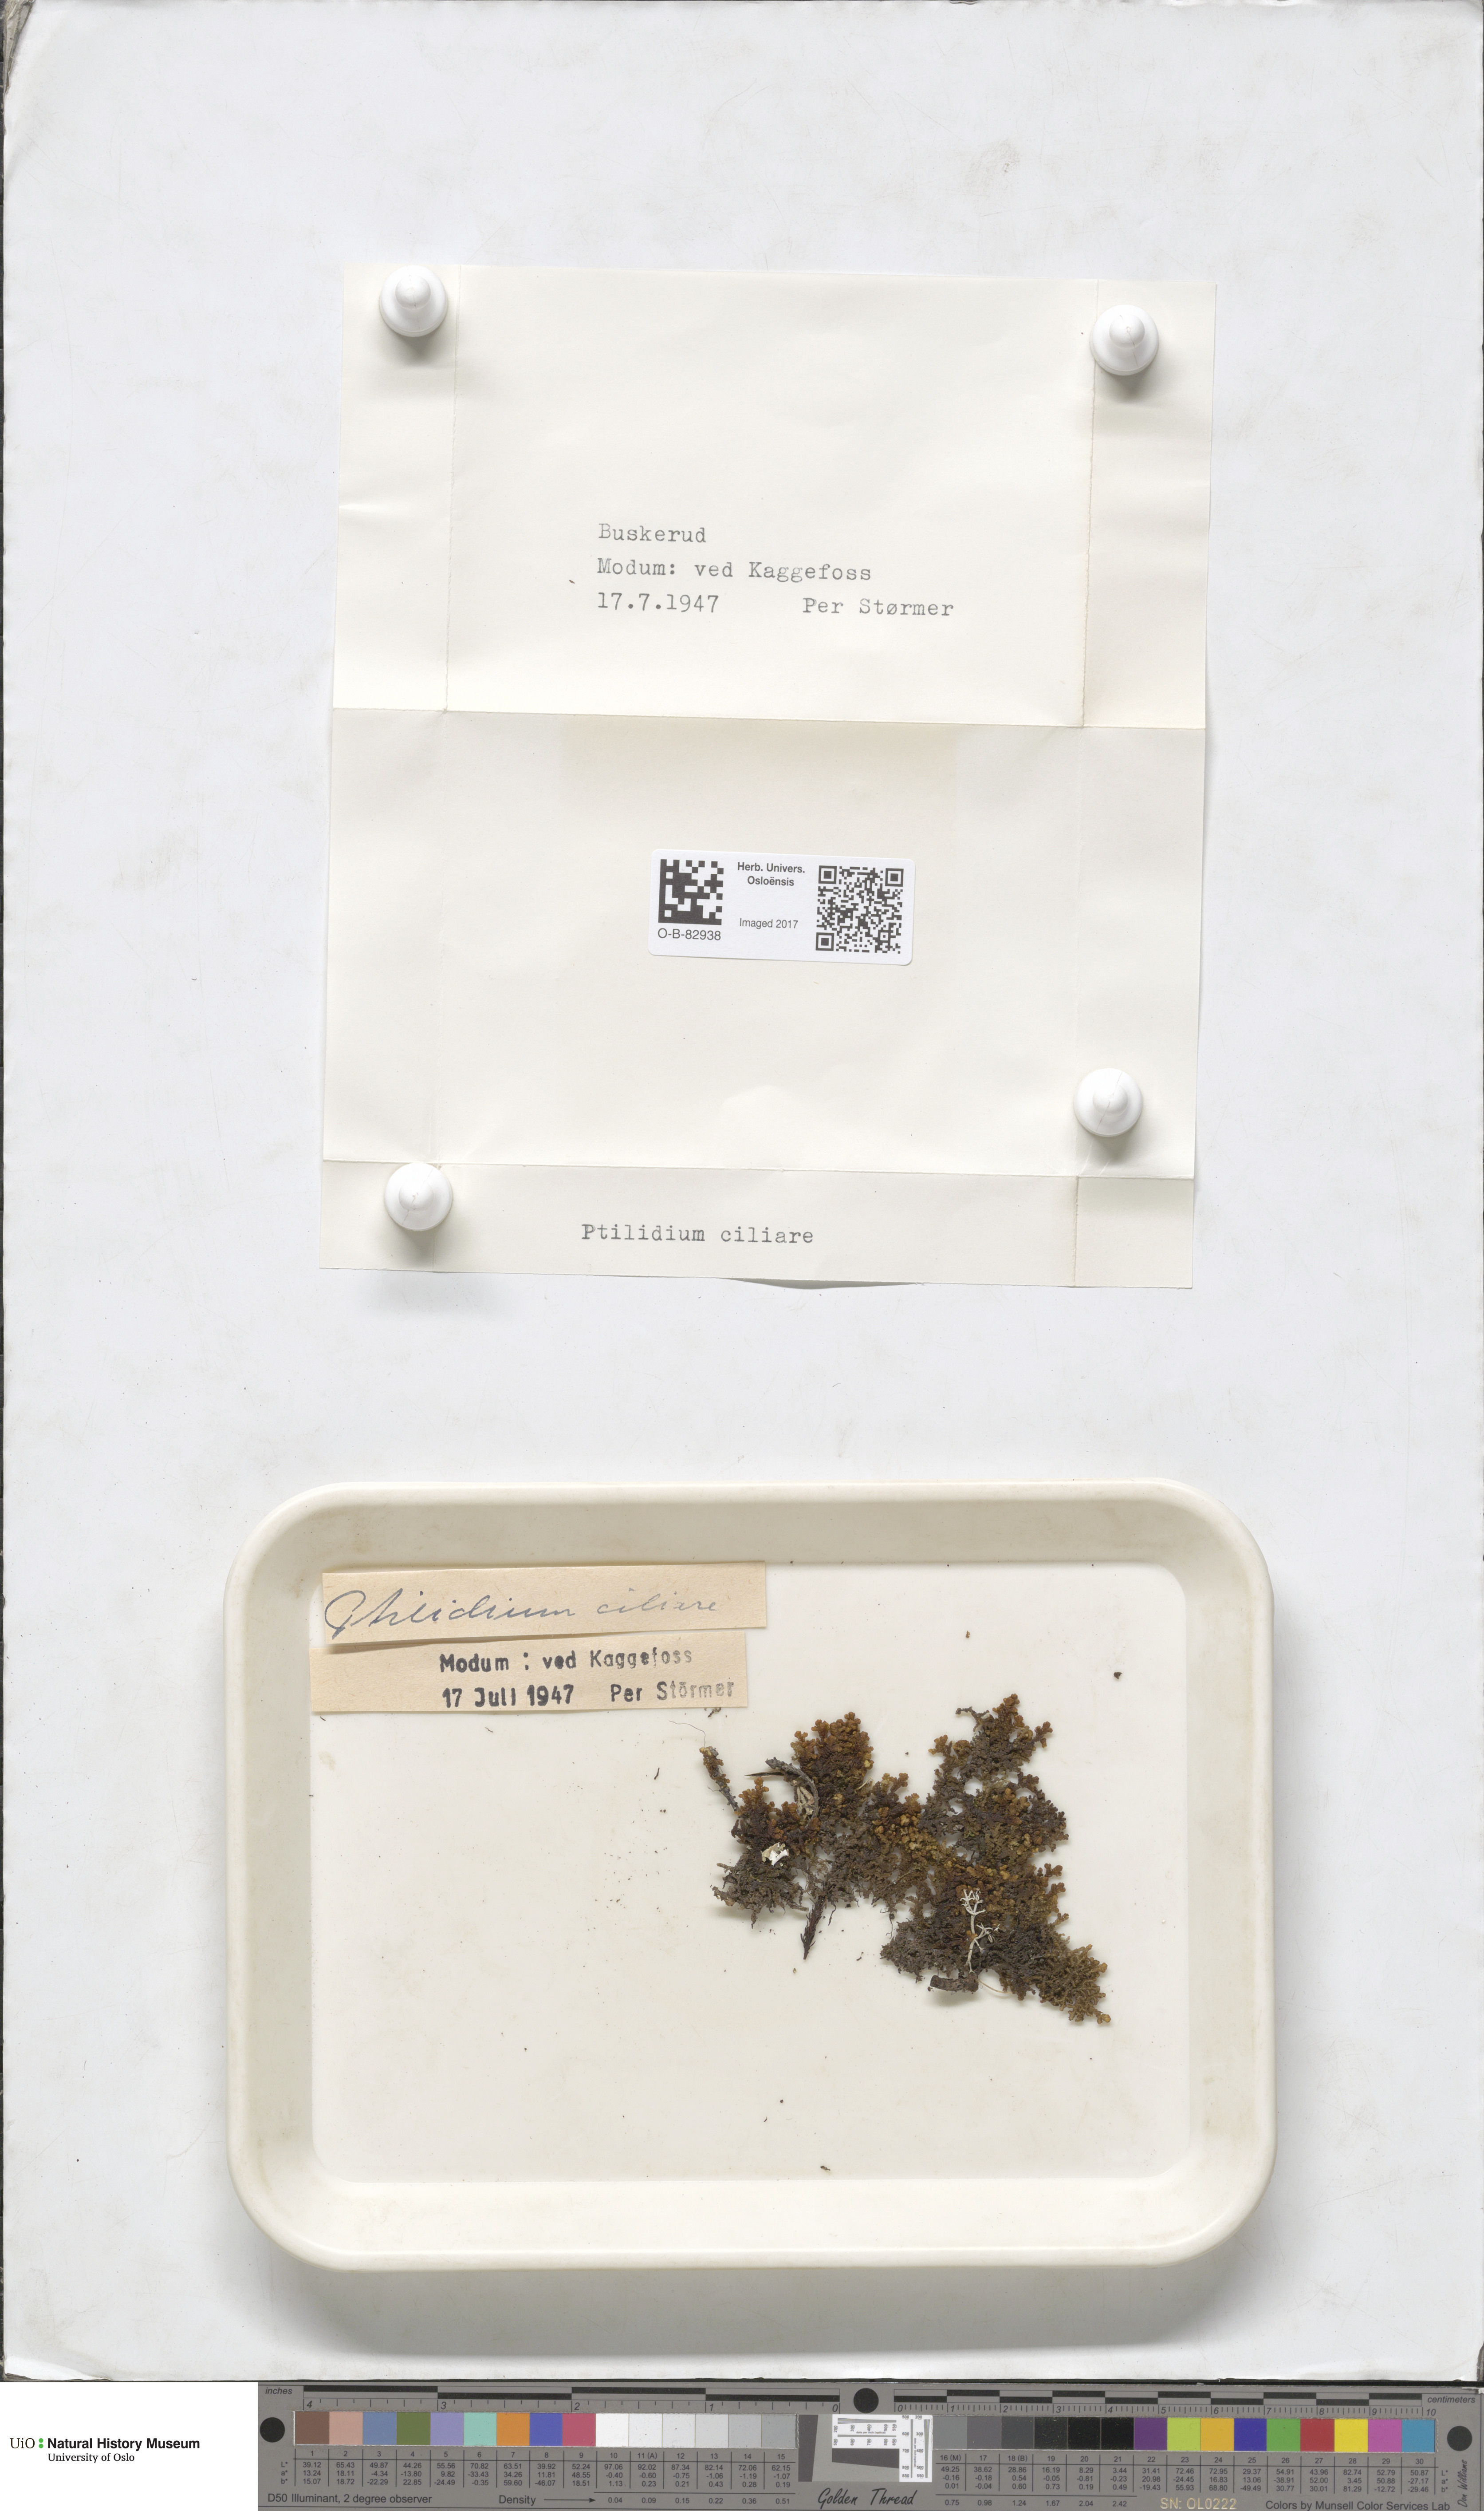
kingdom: Plantae
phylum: Marchantiophyta
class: Jungermanniopsida
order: Ptilidiales
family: Ptilidiaceae
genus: Ptilidium
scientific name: Ptilidium ciliare
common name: Ciliate fringewort
